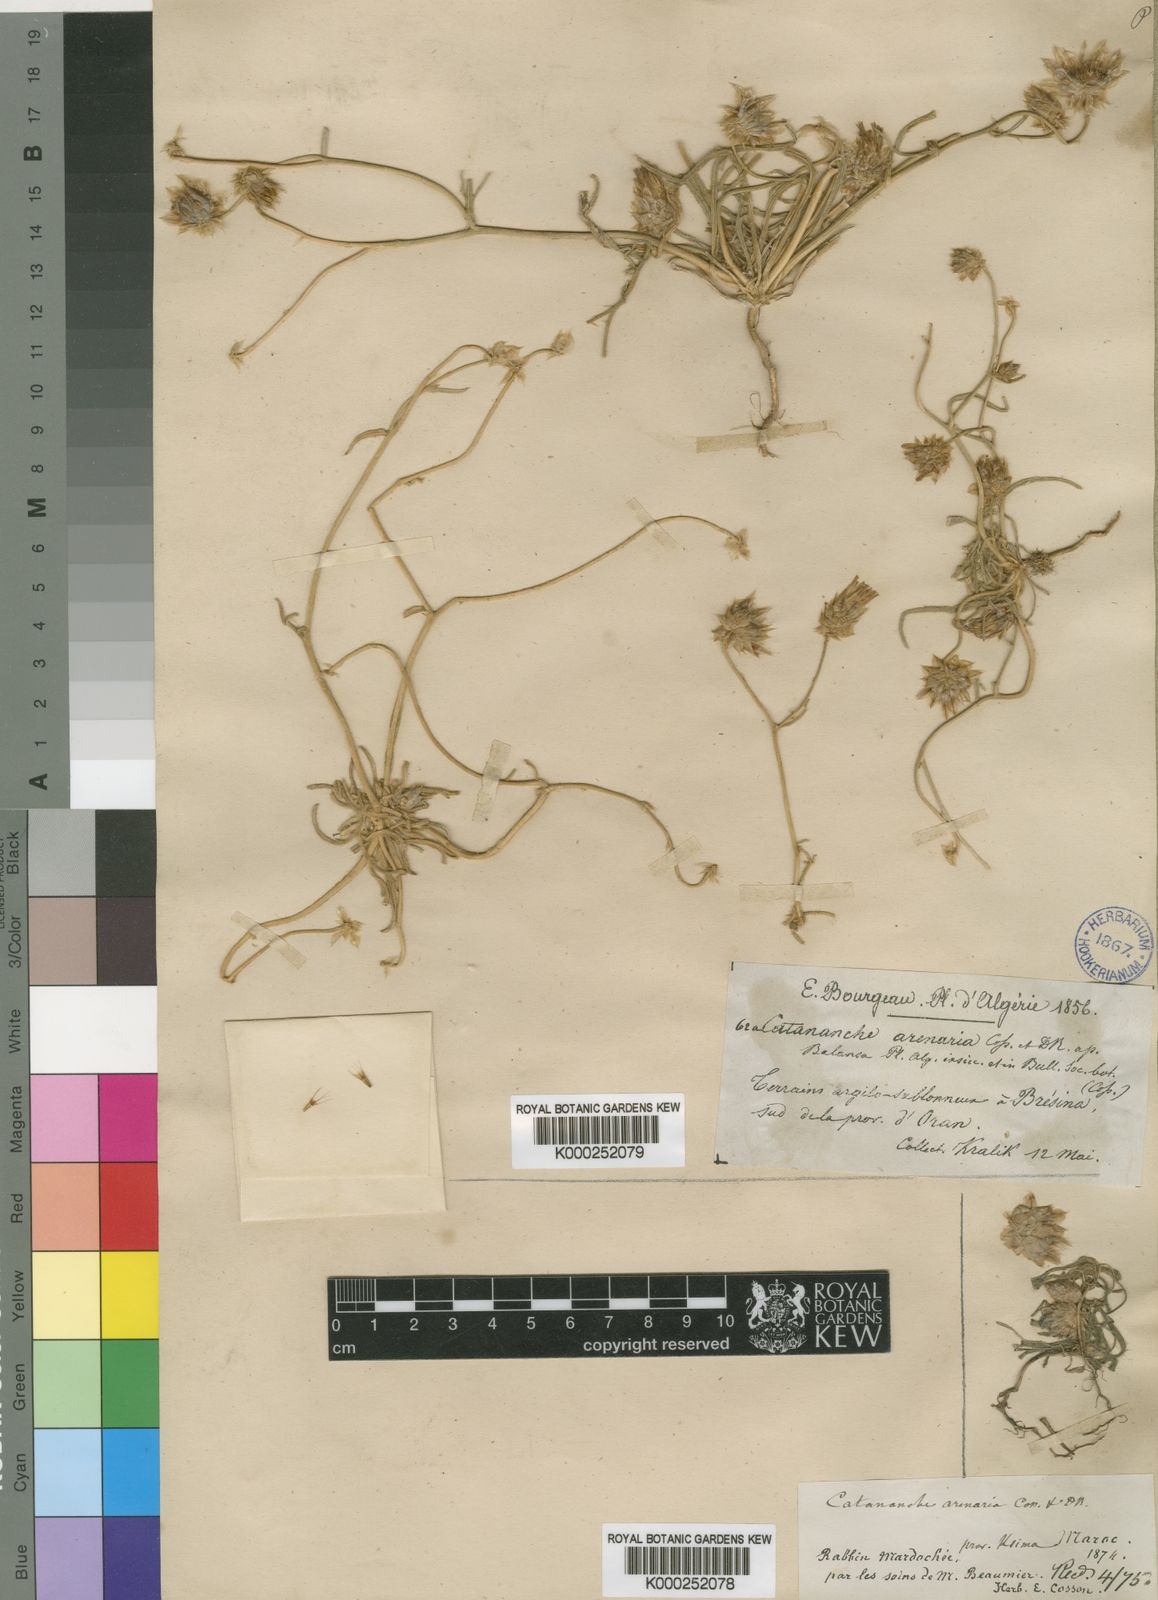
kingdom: Plantae
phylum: Tracheophyta
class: Magnoliopsida
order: Asterales
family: Asteraceae
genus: Catananche
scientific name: Catananche arenaria
